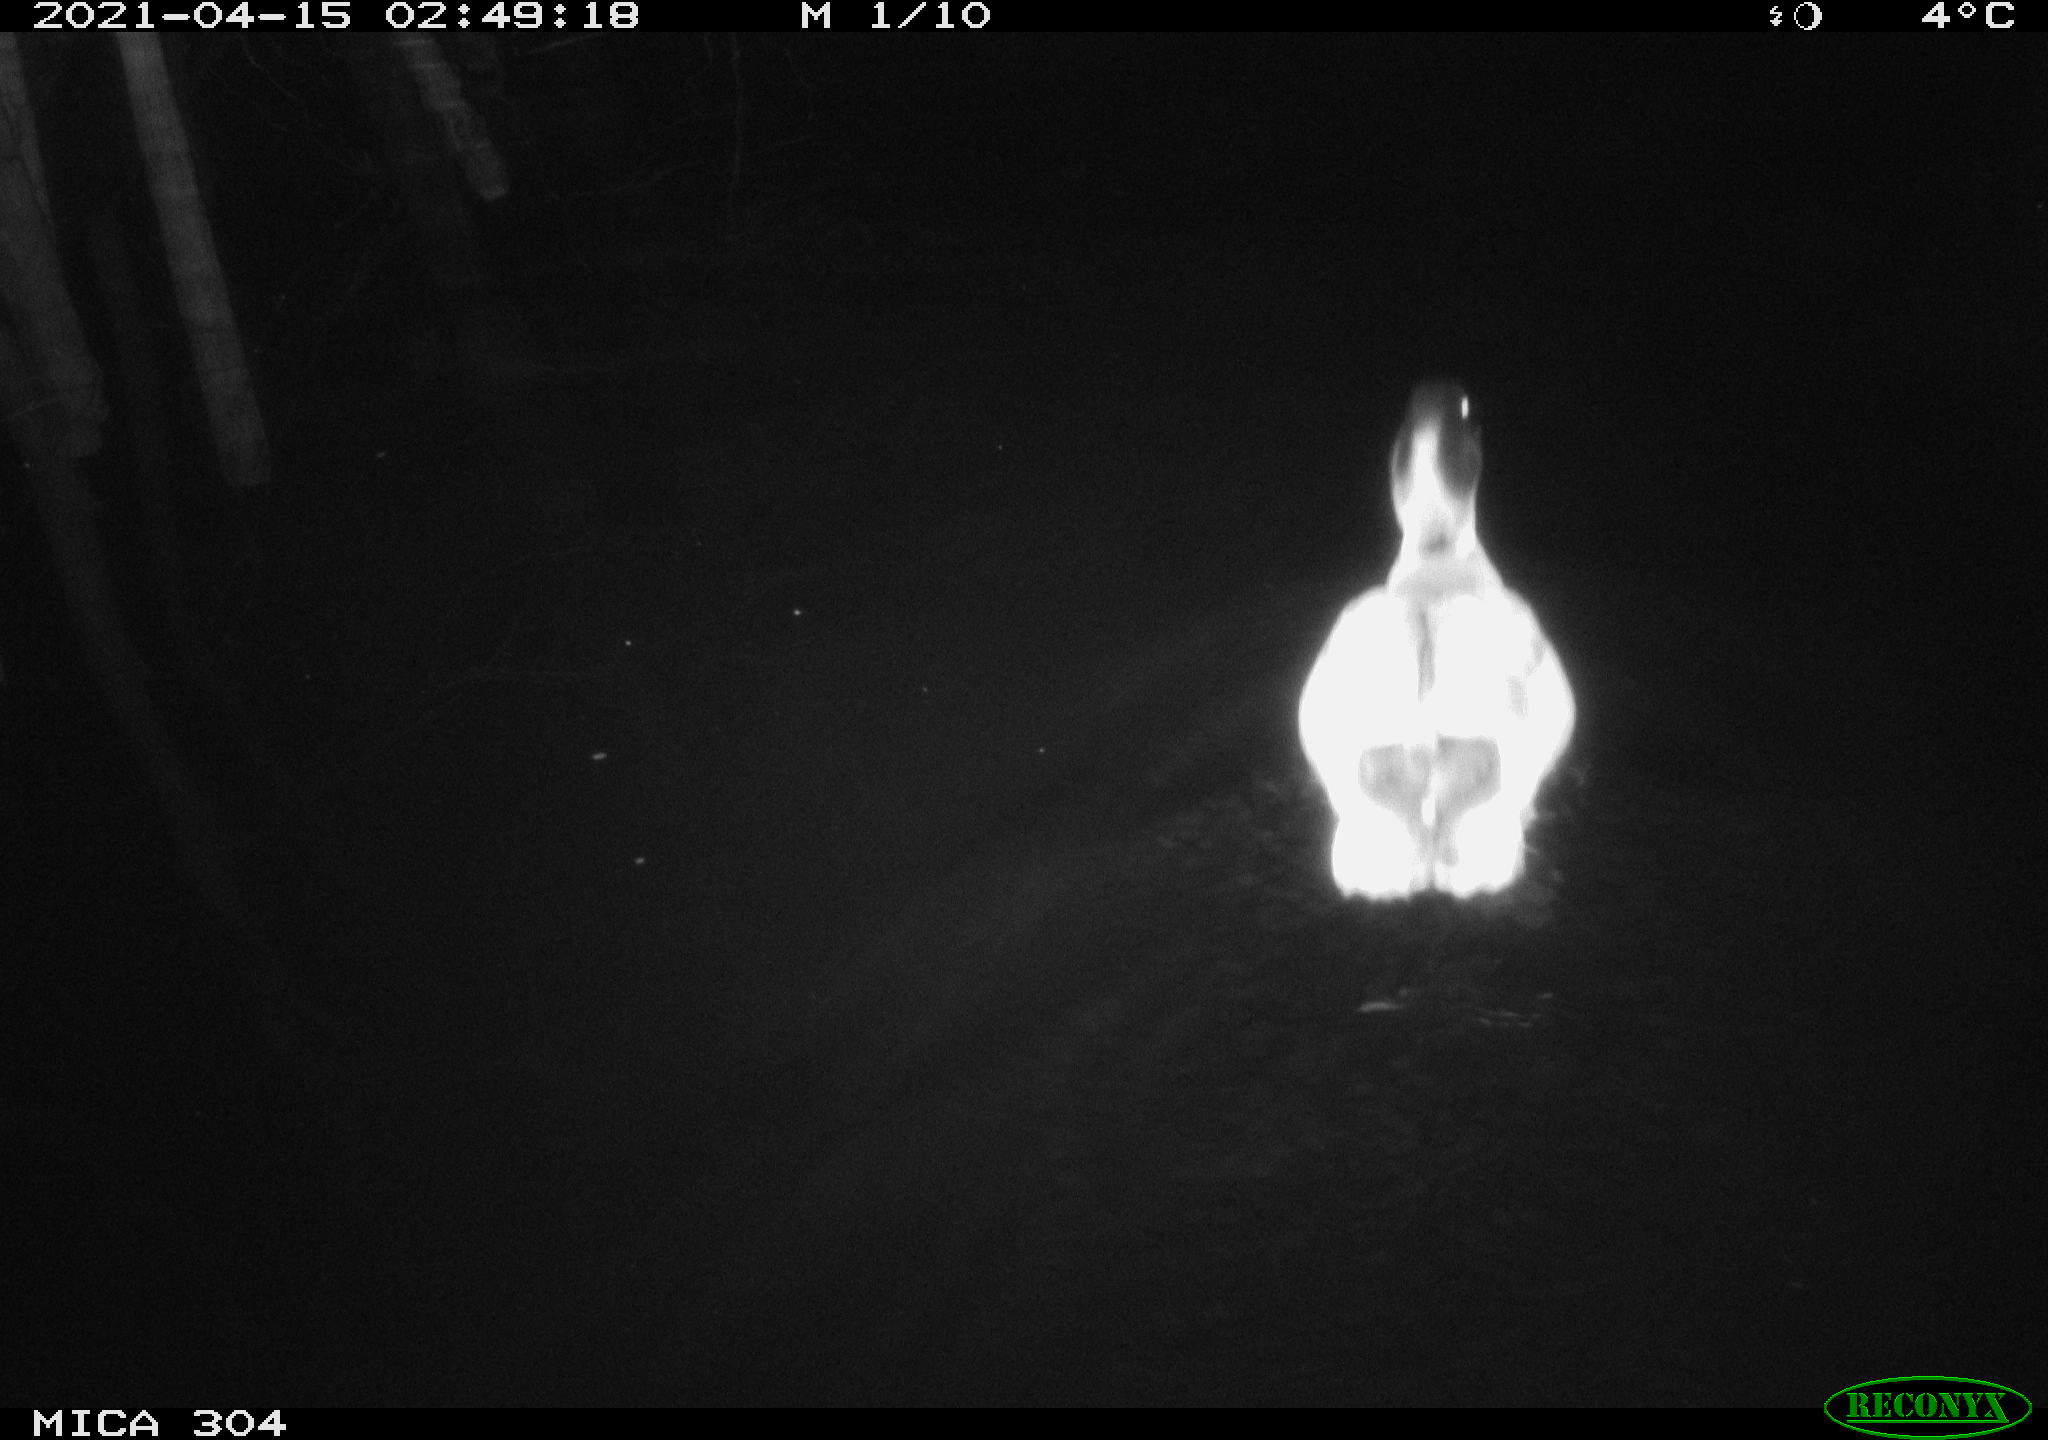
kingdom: Animalia
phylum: Chordata
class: Aves
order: Anseriformes
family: Anatidae
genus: Anas
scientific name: Anas
